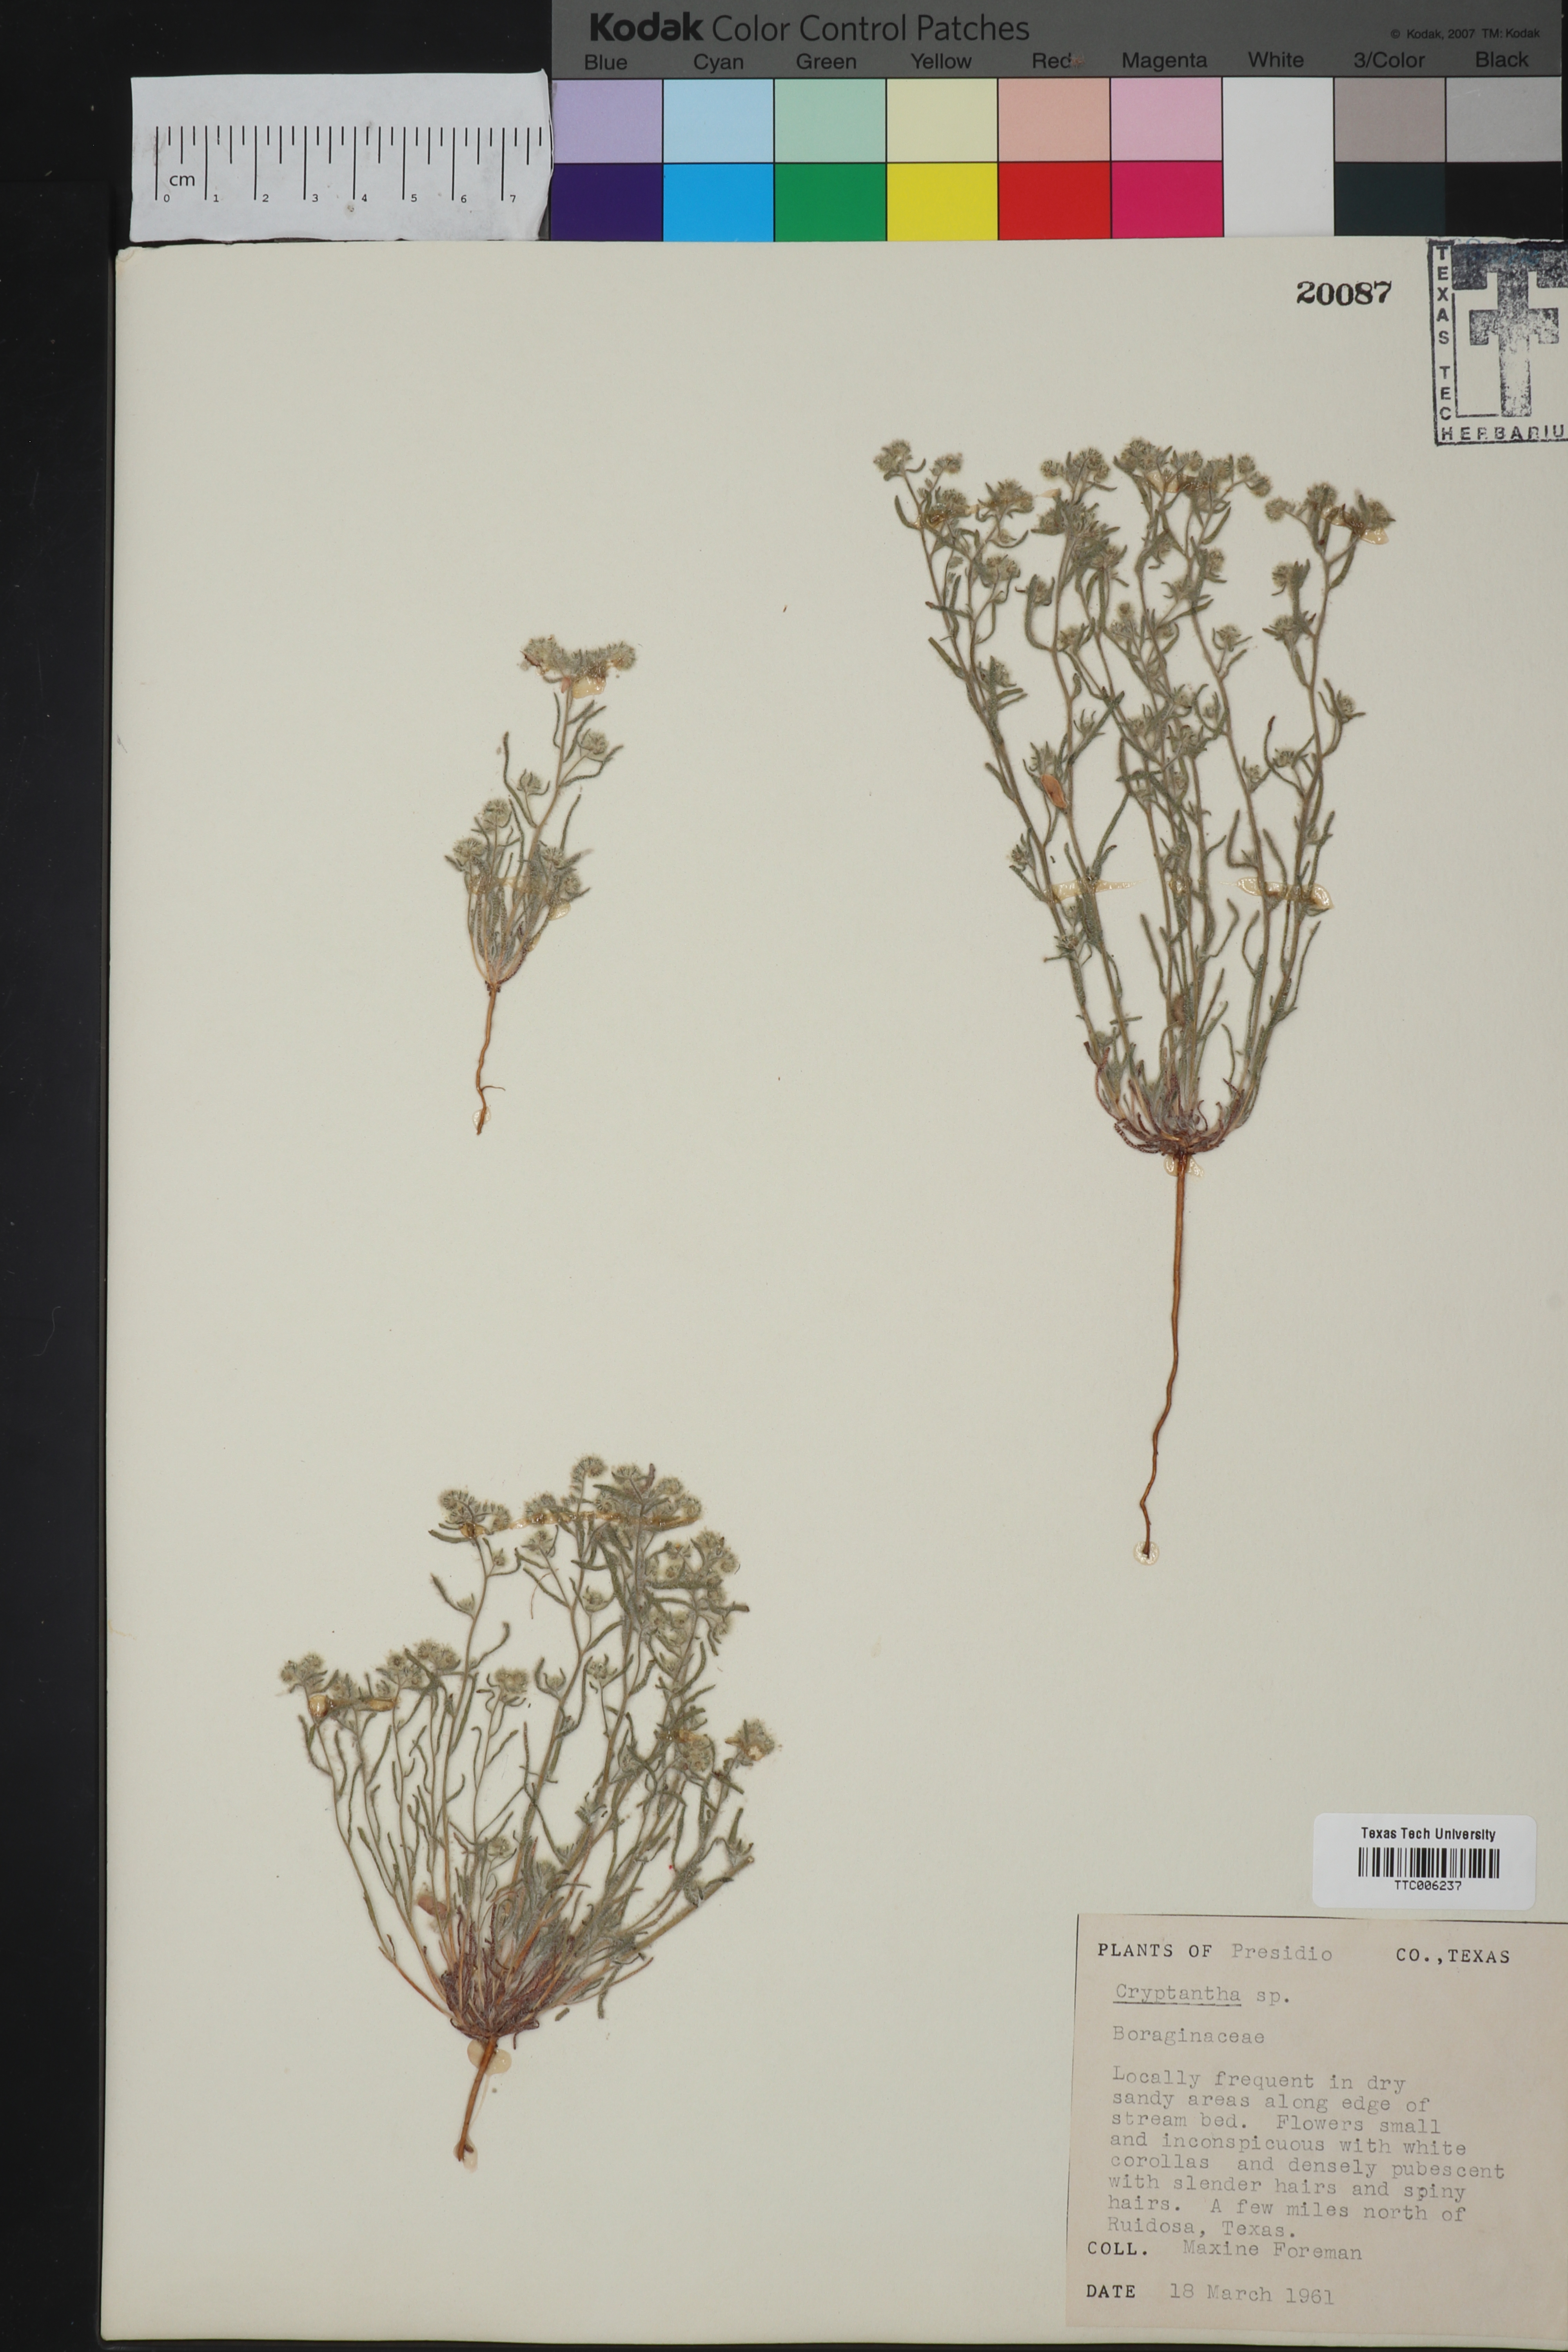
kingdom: Plantae
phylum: Tracheophyta
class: Magnoliopsida
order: Boraginales
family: Boraginaceae
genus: Cryptantha
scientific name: Cryptantha
